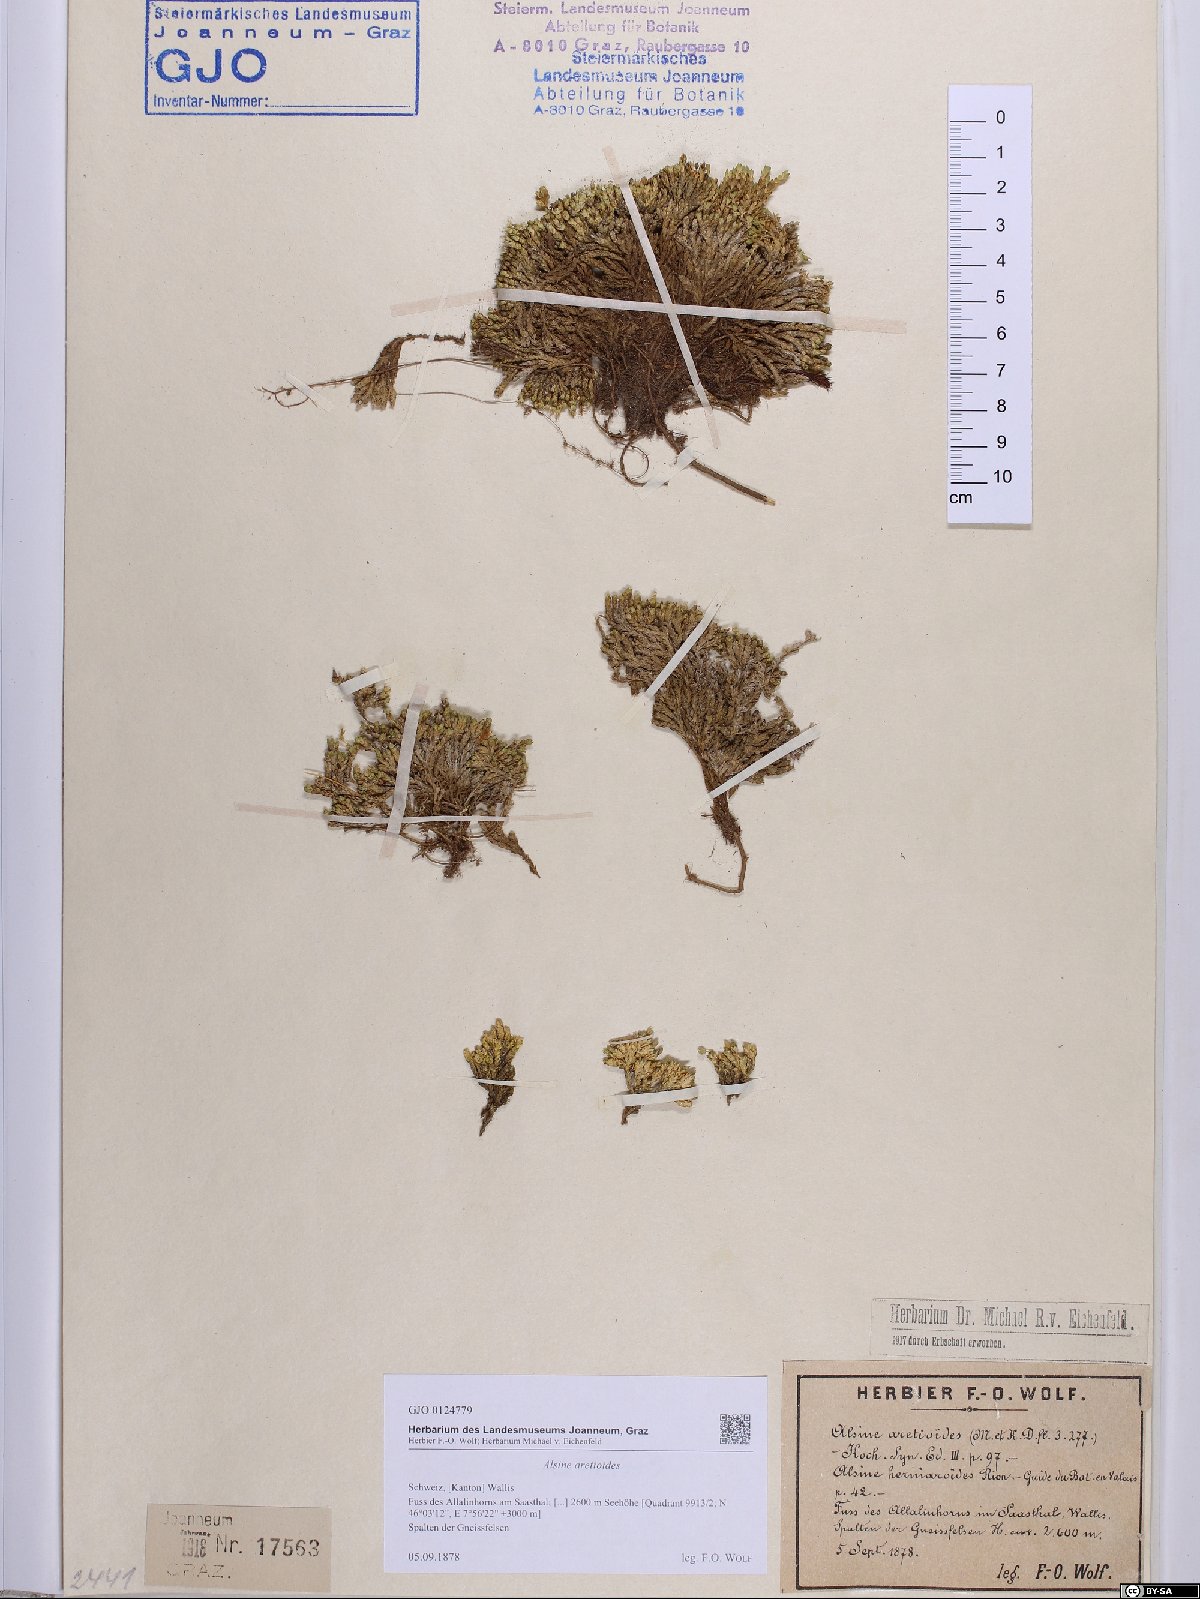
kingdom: Plantae
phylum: Tracheophyta
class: Magnoliopsida
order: Caryophyllales
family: Caryophyllaceae
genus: Facchinia
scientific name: Facchinia cherlerioides
